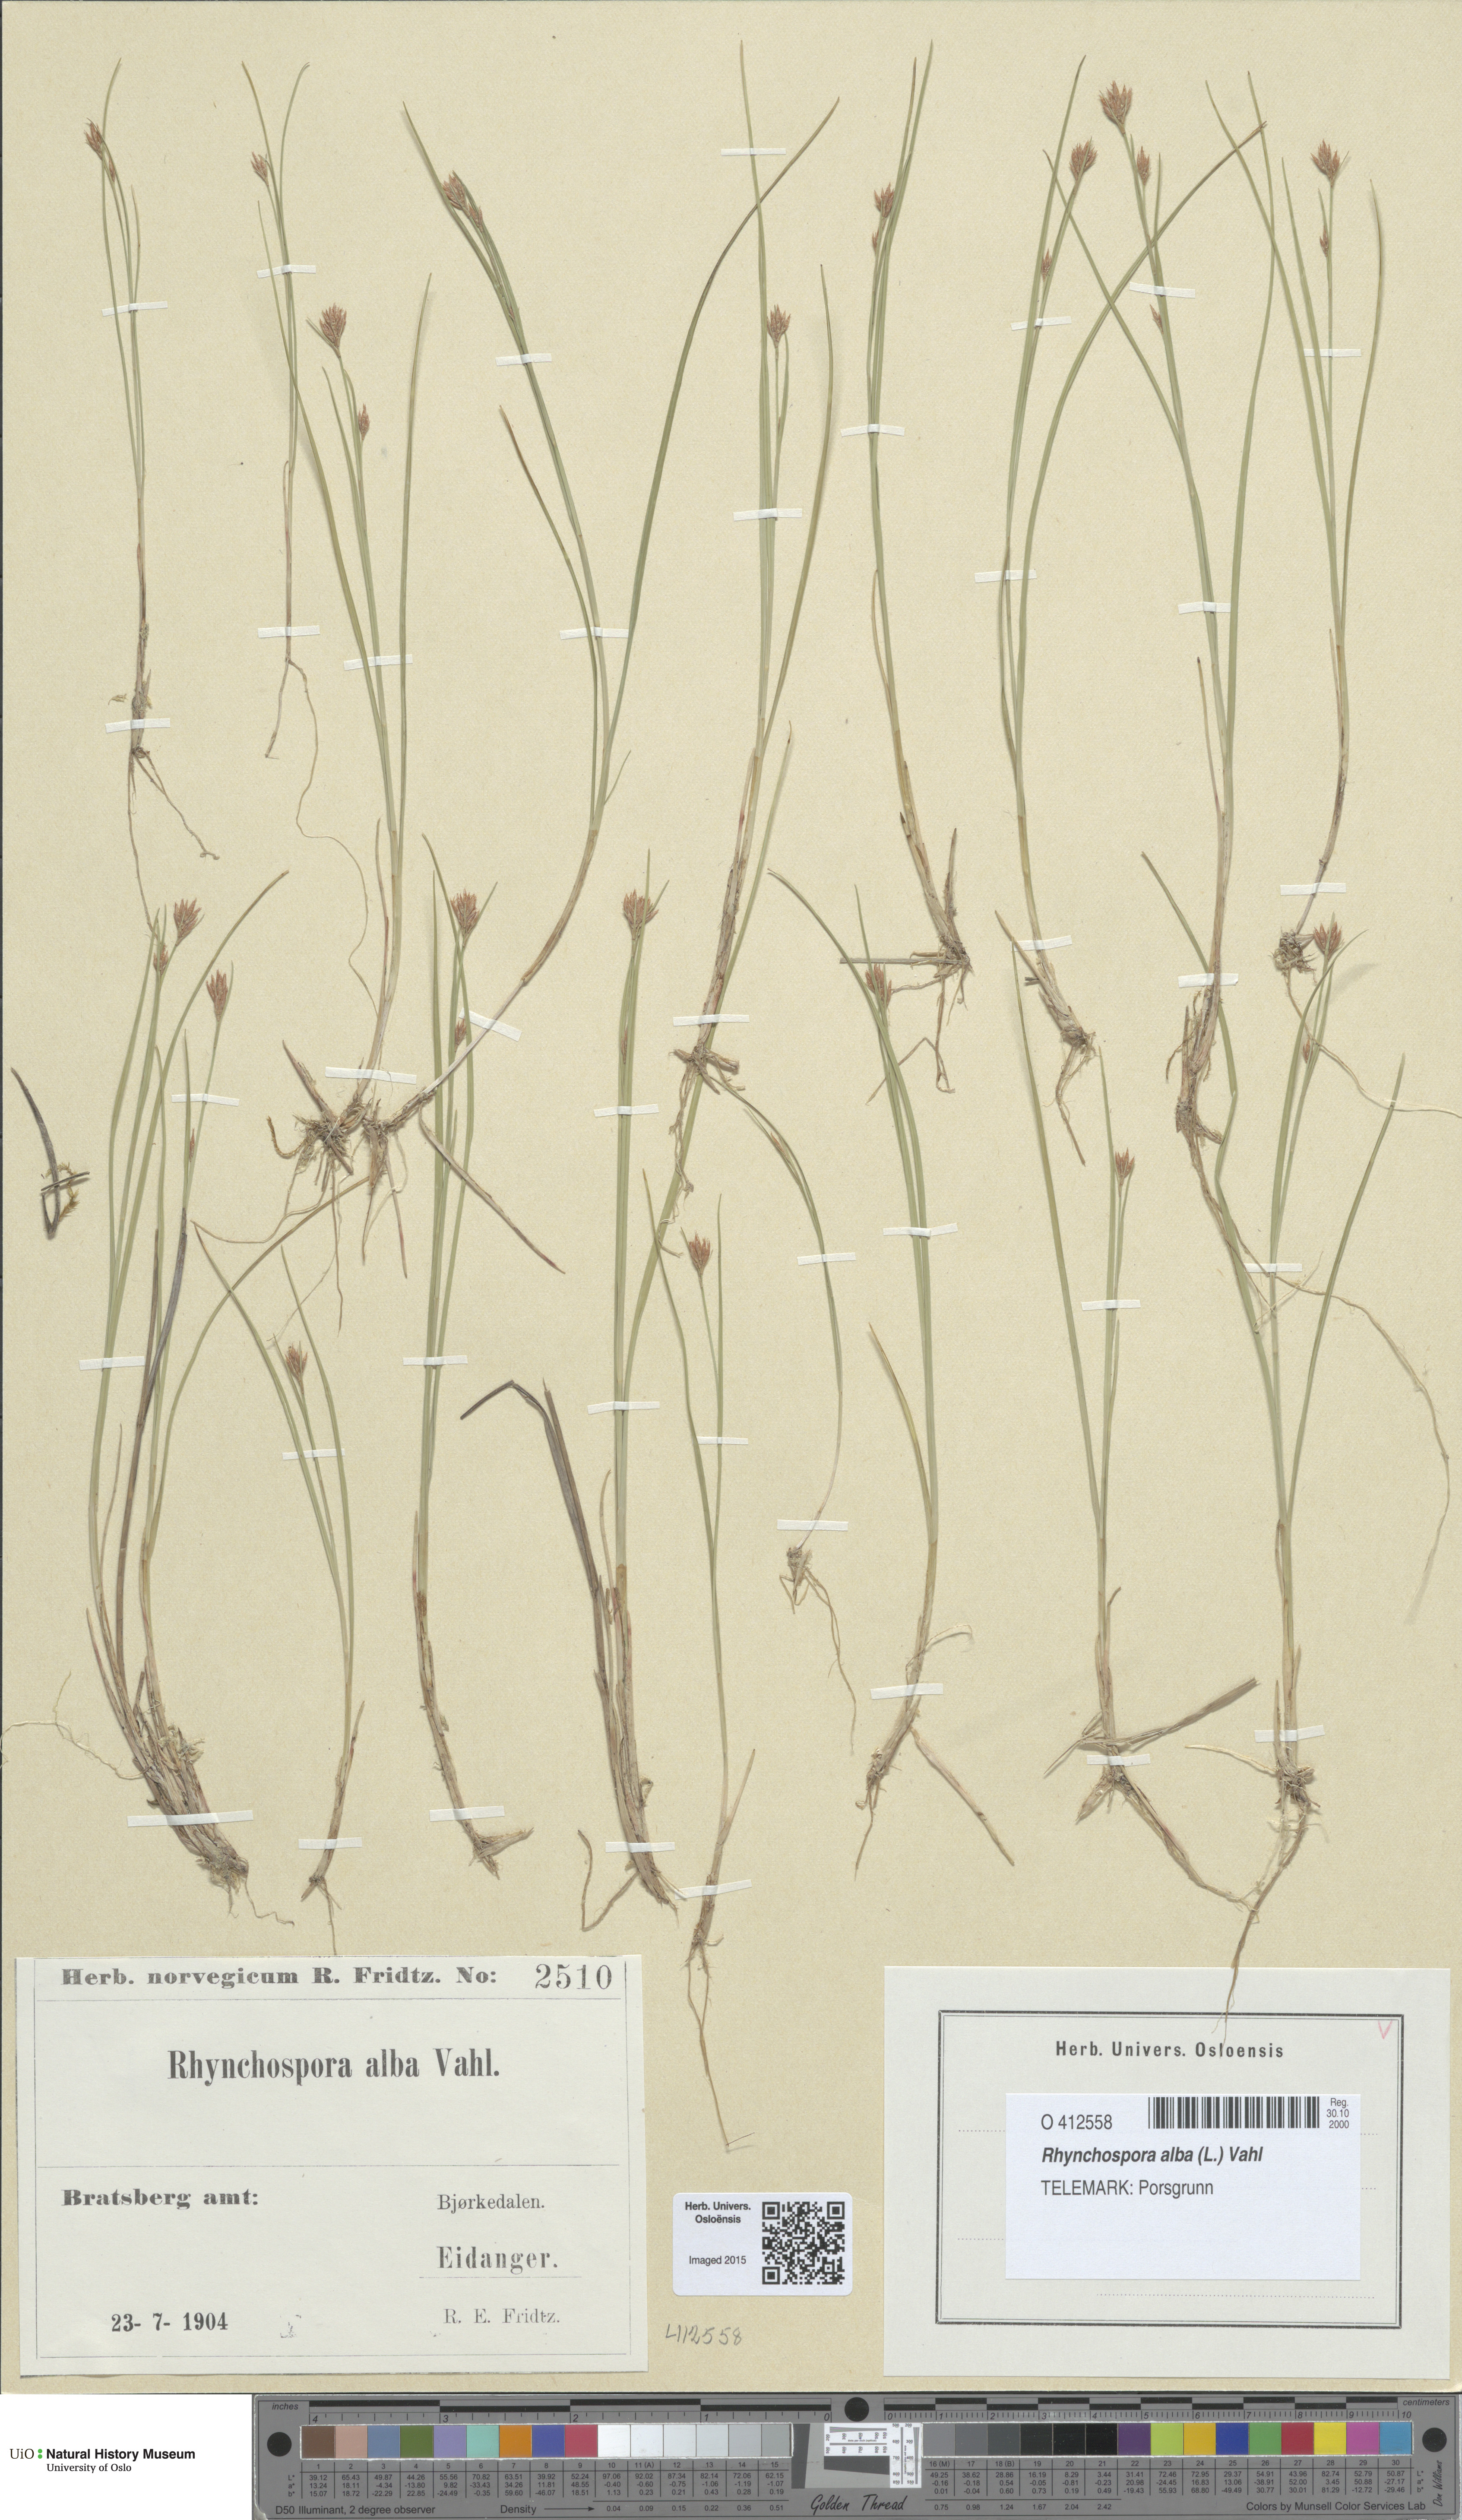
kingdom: Plantae
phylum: Tracheophyta
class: Liliopsida
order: Poales
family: Cyperaceae
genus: Rhynchospora
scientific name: Rhynchospora alba
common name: White beak-sedge
